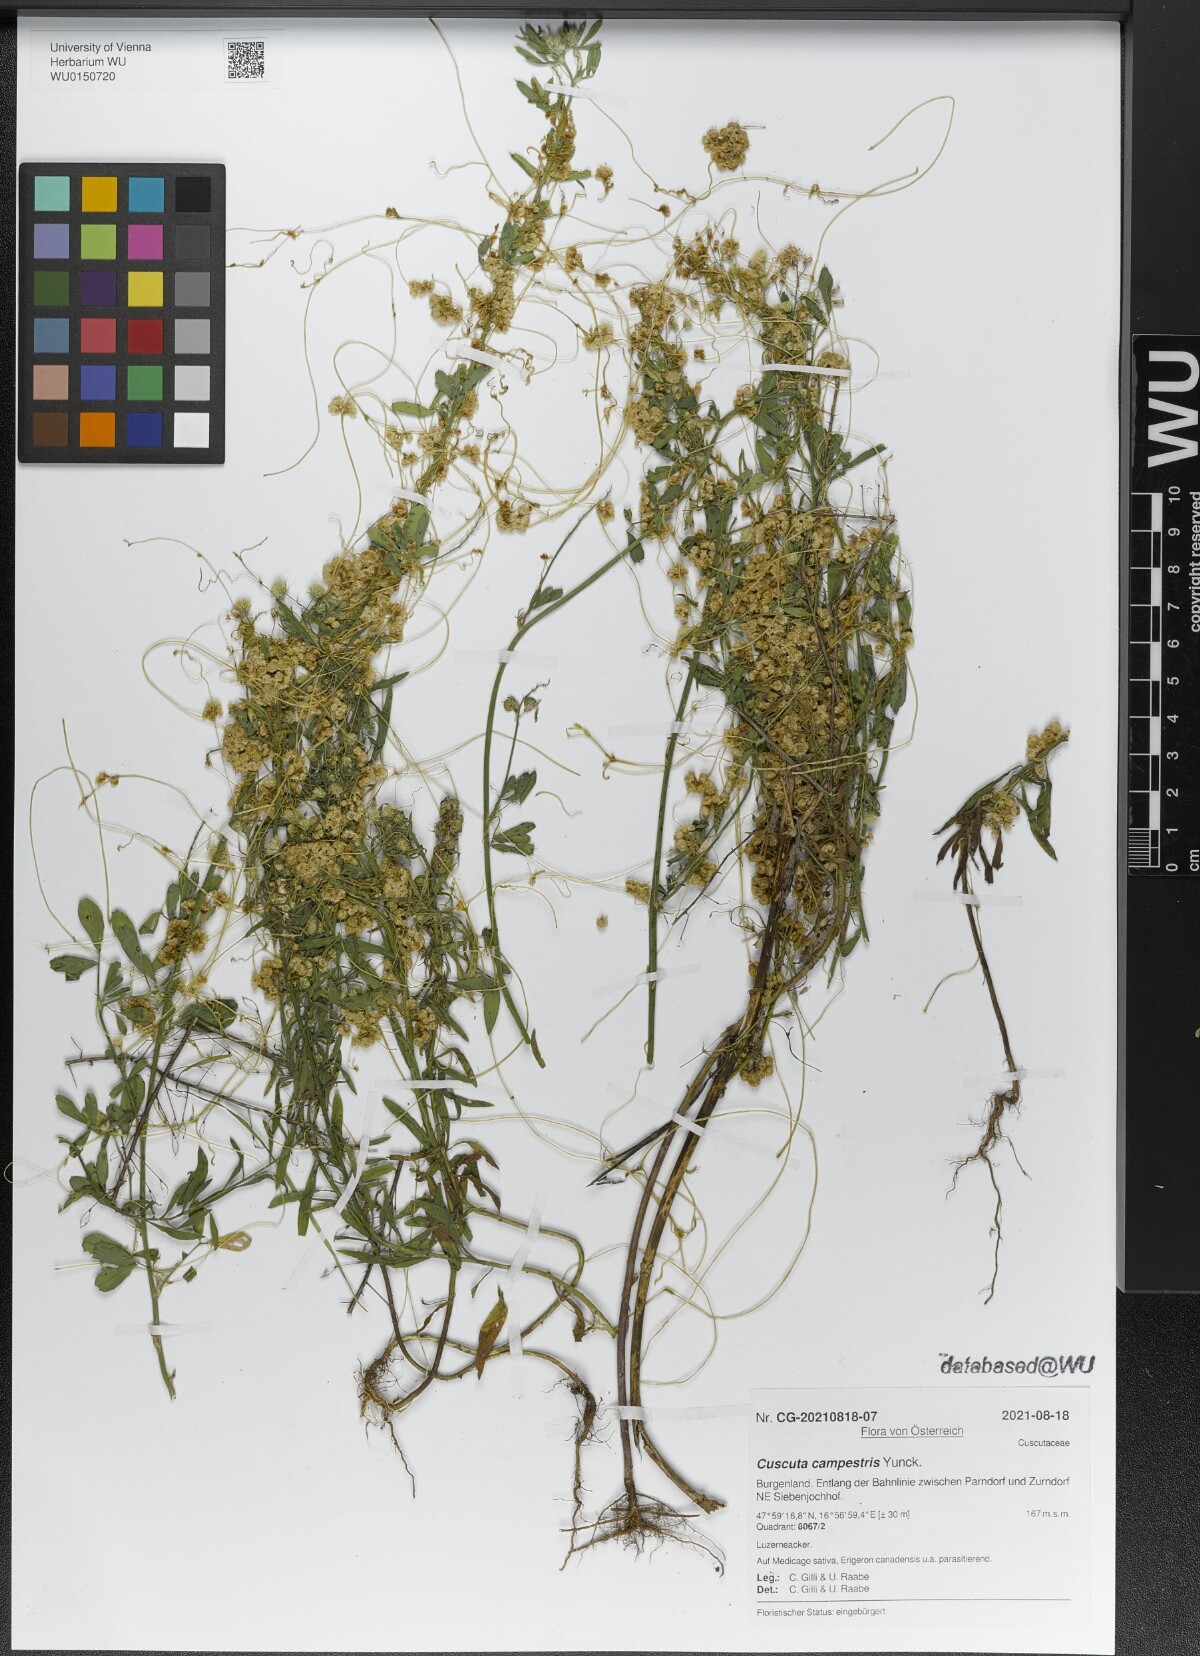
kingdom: Plantae
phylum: Tracheophyta
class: Magnoliopsida
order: Solanales
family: Convolvulaceae
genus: Cuscuta
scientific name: Cuscuta campestris
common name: Yellow dodder
